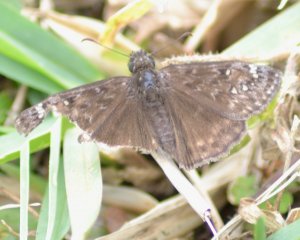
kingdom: Animalia
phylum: Arthropoda
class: Insecta
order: Lepidoptera
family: Hesperiidae
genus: Gesta
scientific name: Gesta
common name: Juvenal's Duskywing
